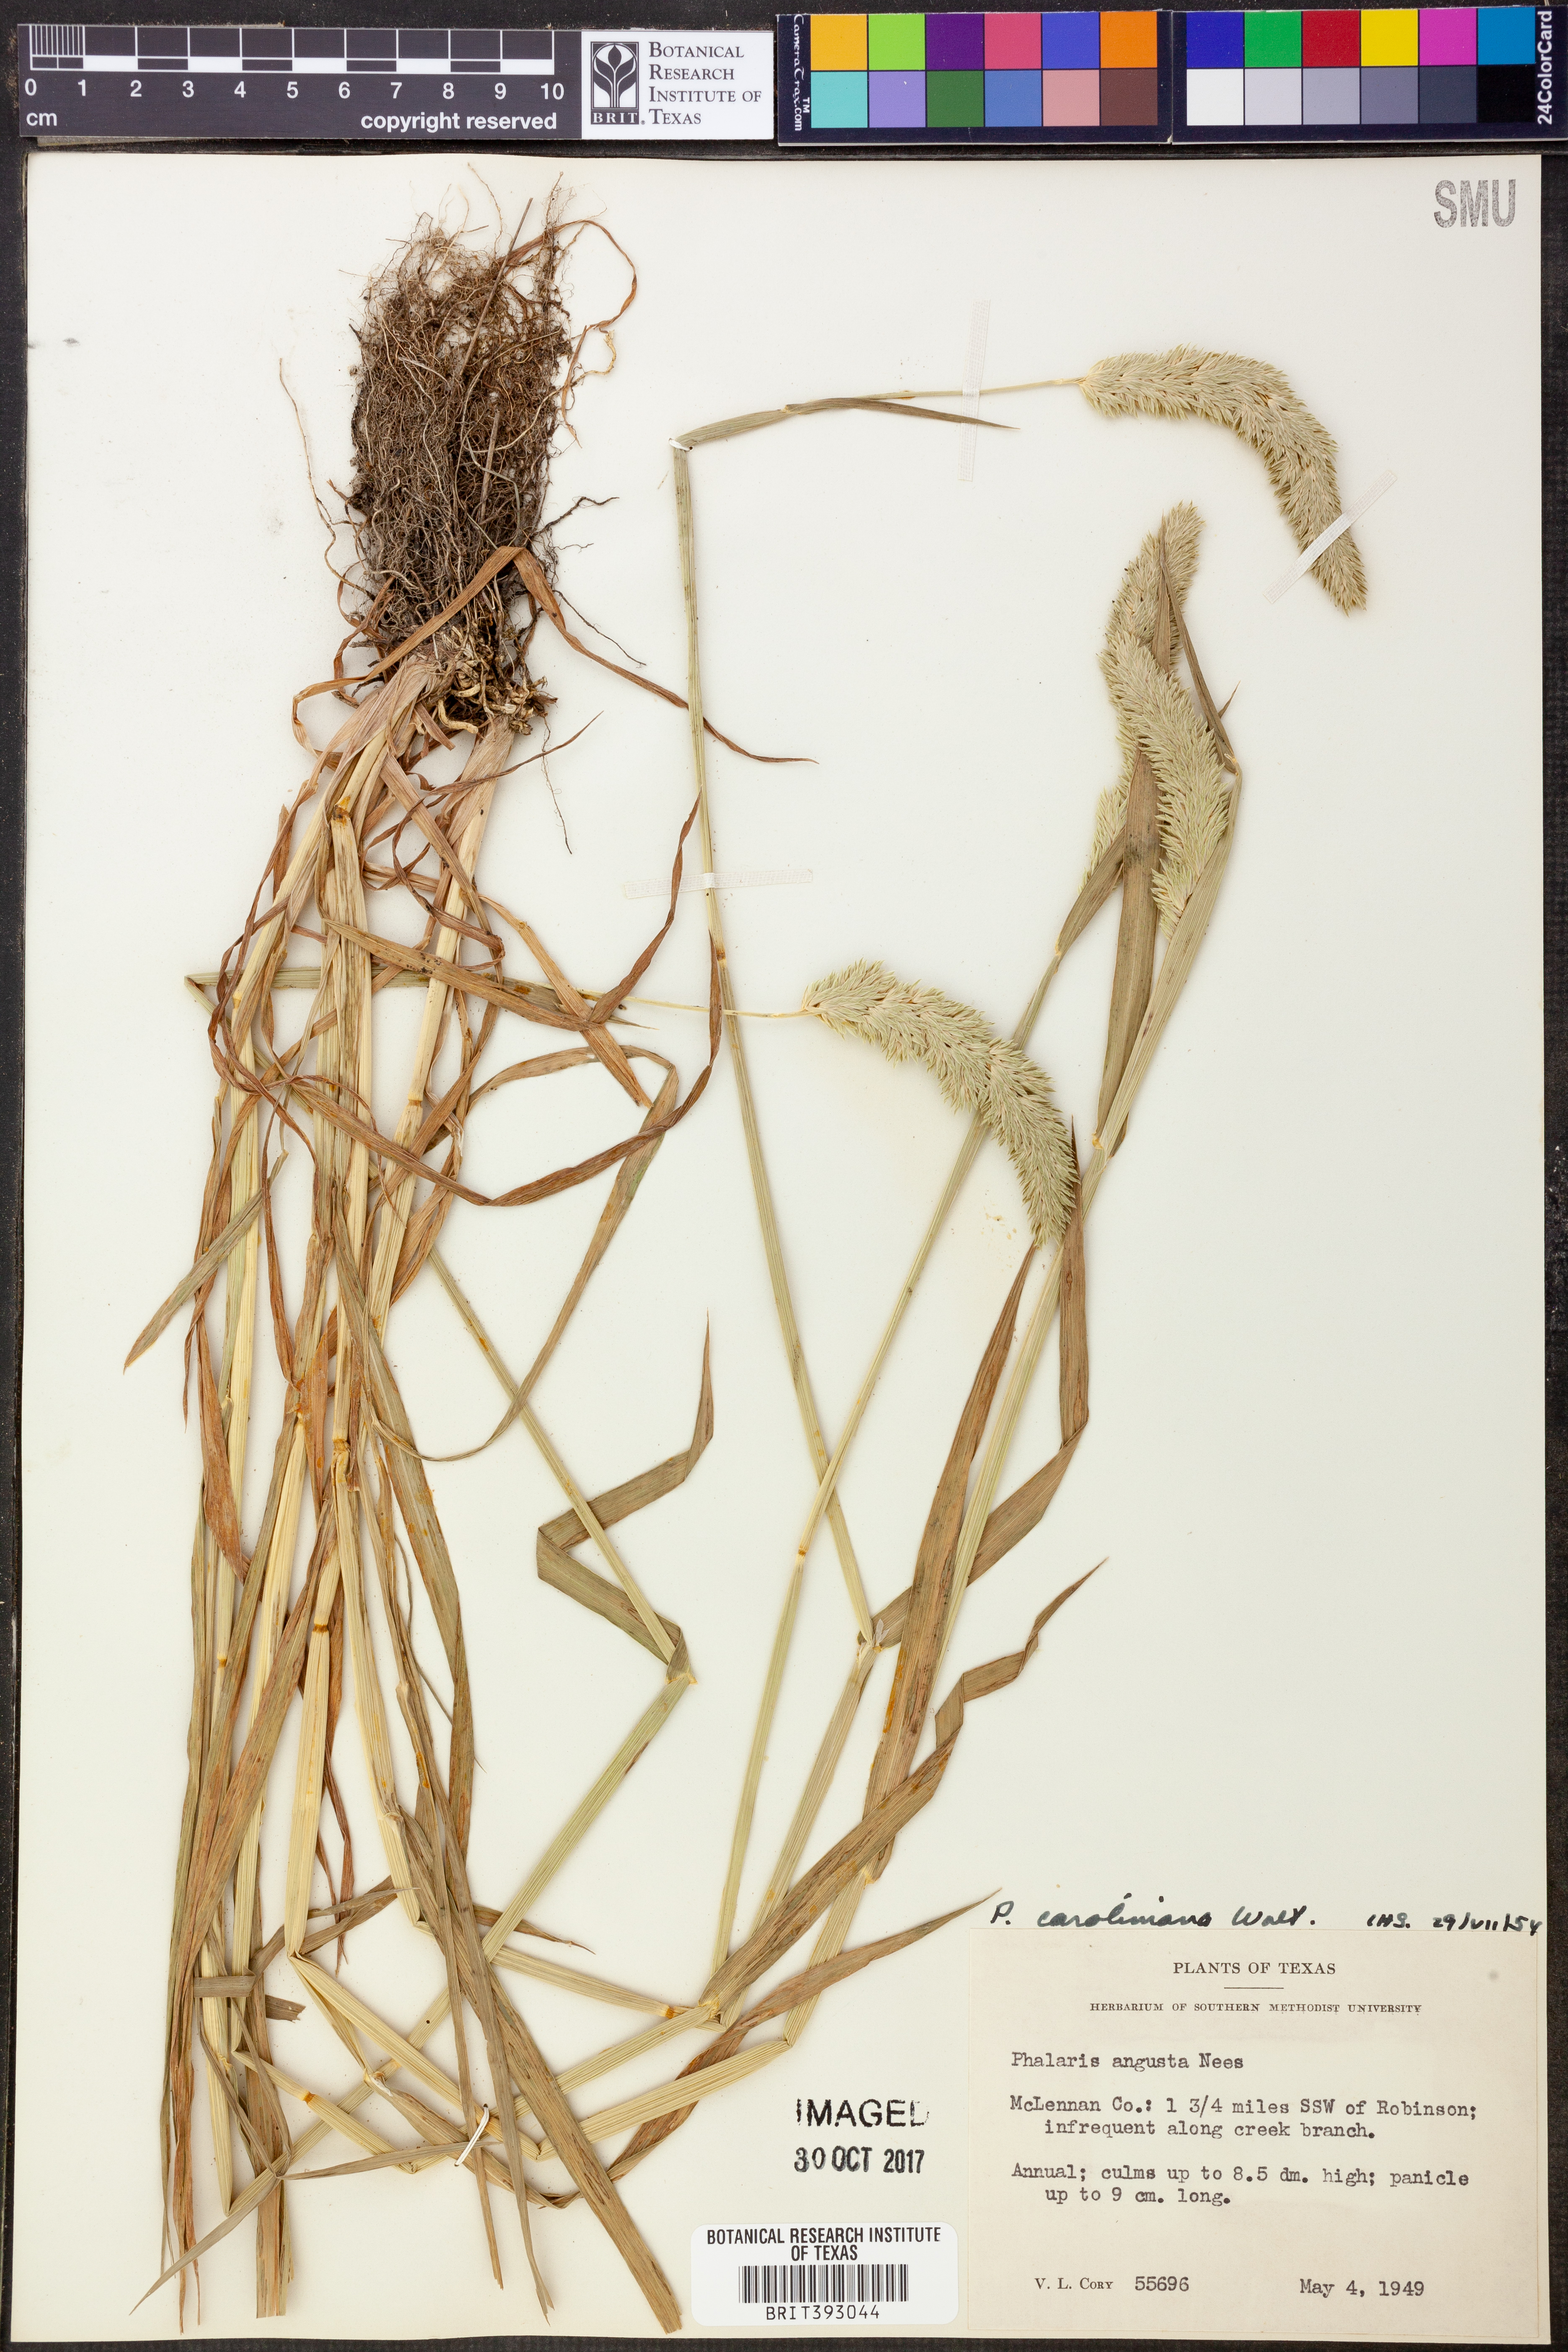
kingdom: Plantae
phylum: Tracheophyta
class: Liliopsida
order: Poales
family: Poaceae
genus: Phalaris
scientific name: Phalaris caroliniana
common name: May grass
